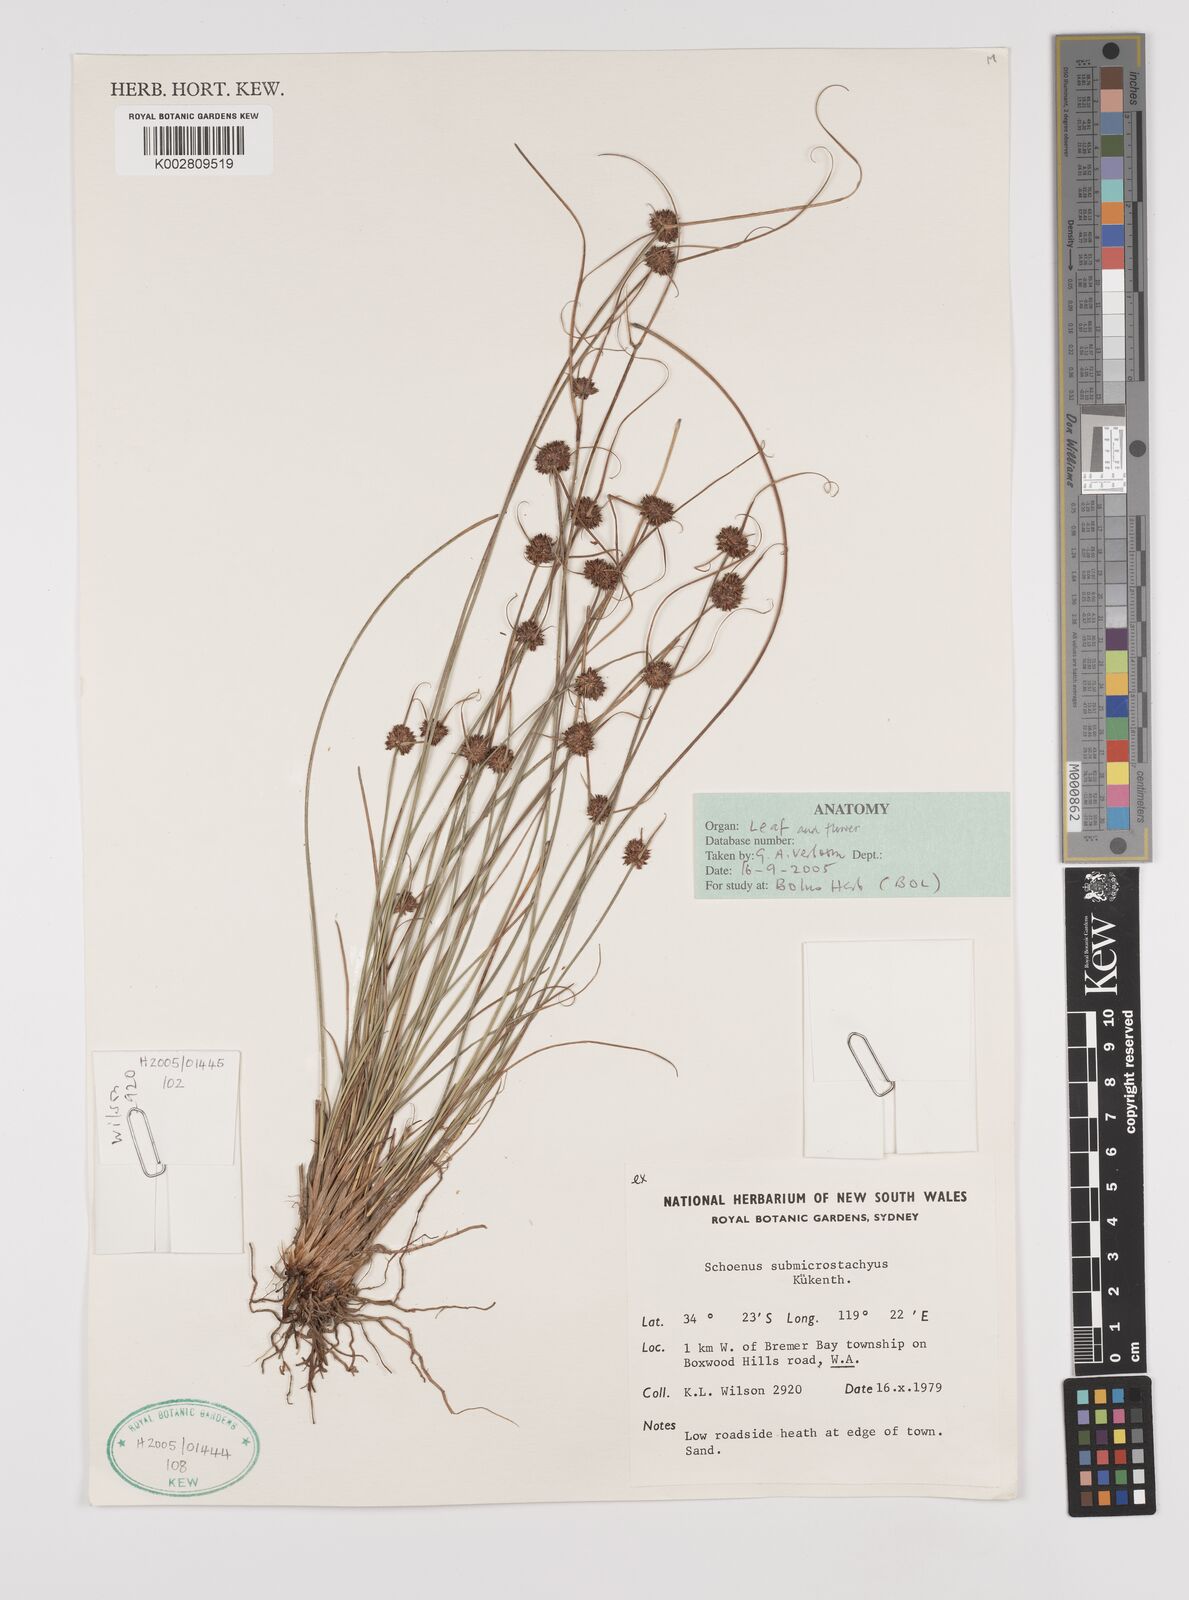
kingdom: Plantae
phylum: Tracheophyta
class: Liliopsida
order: Poales
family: Cyperaceae
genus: Schoenus
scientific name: Schoenus submicrostachyus
